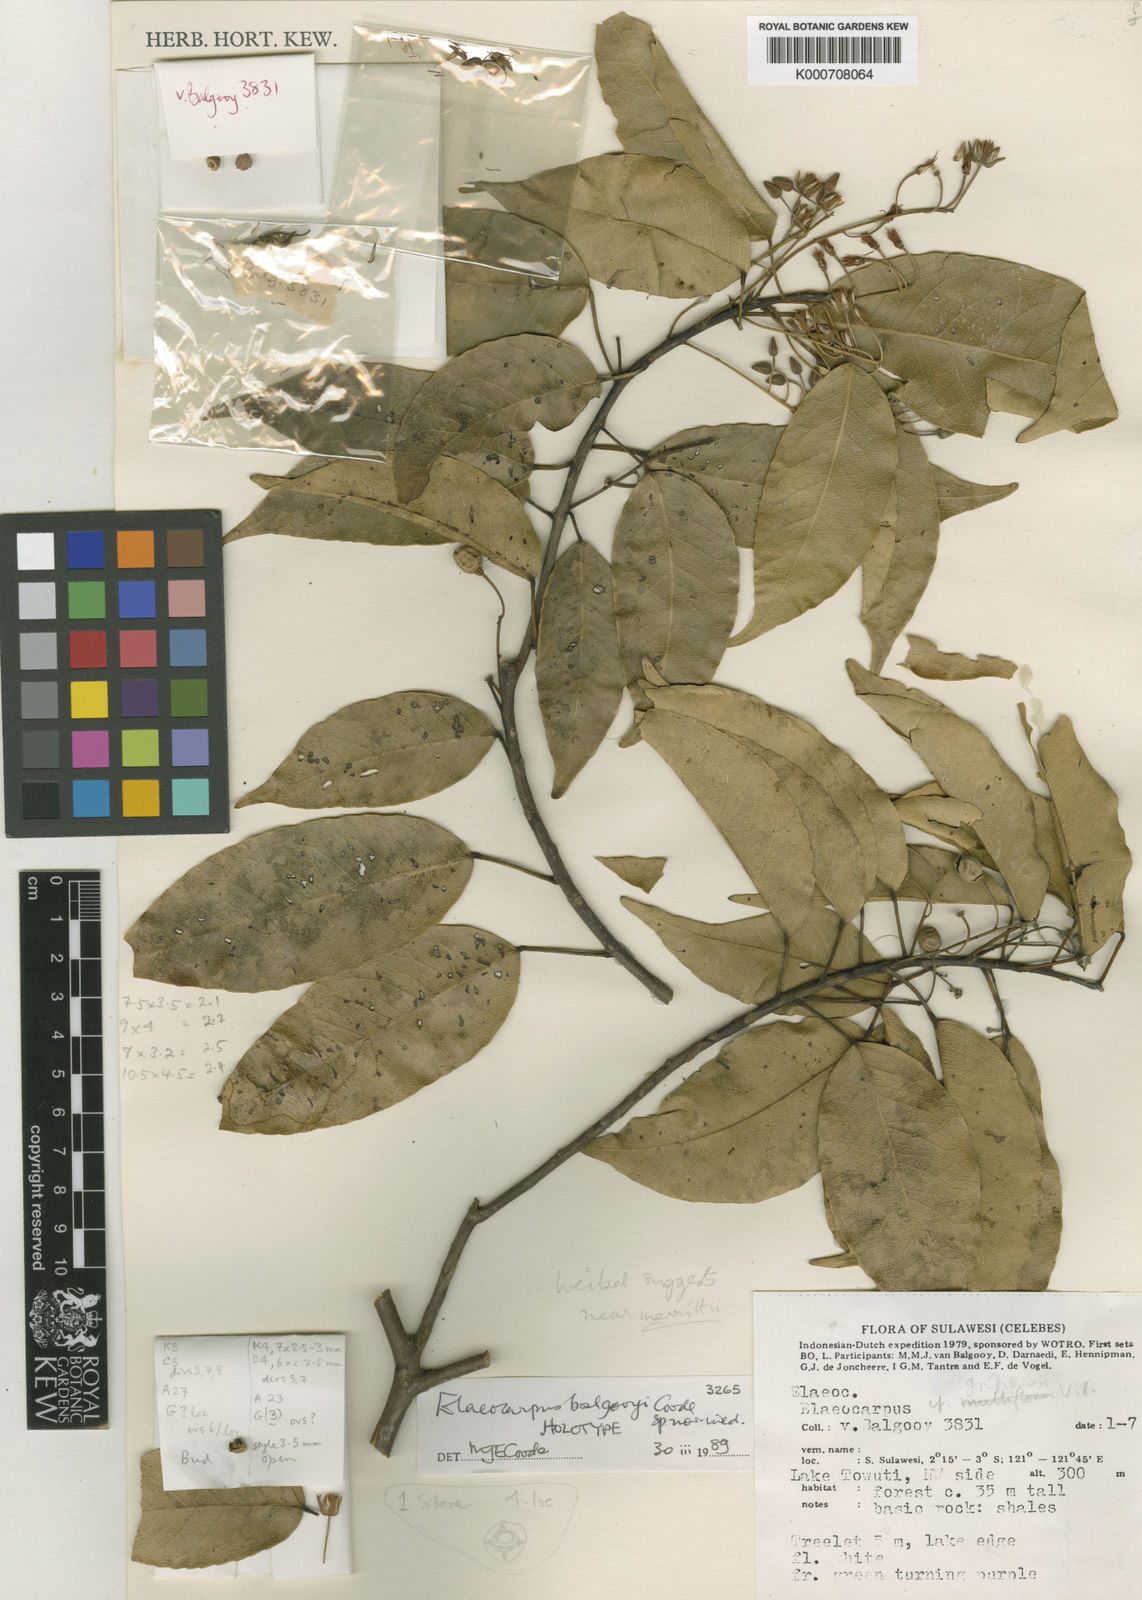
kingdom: Plantae
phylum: Tracheophyta
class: Magnoliopsida
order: Oxalidales
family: Elaeocarpaceae
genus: Elaeocarpus
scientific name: Elaeocarpus balgooyi
